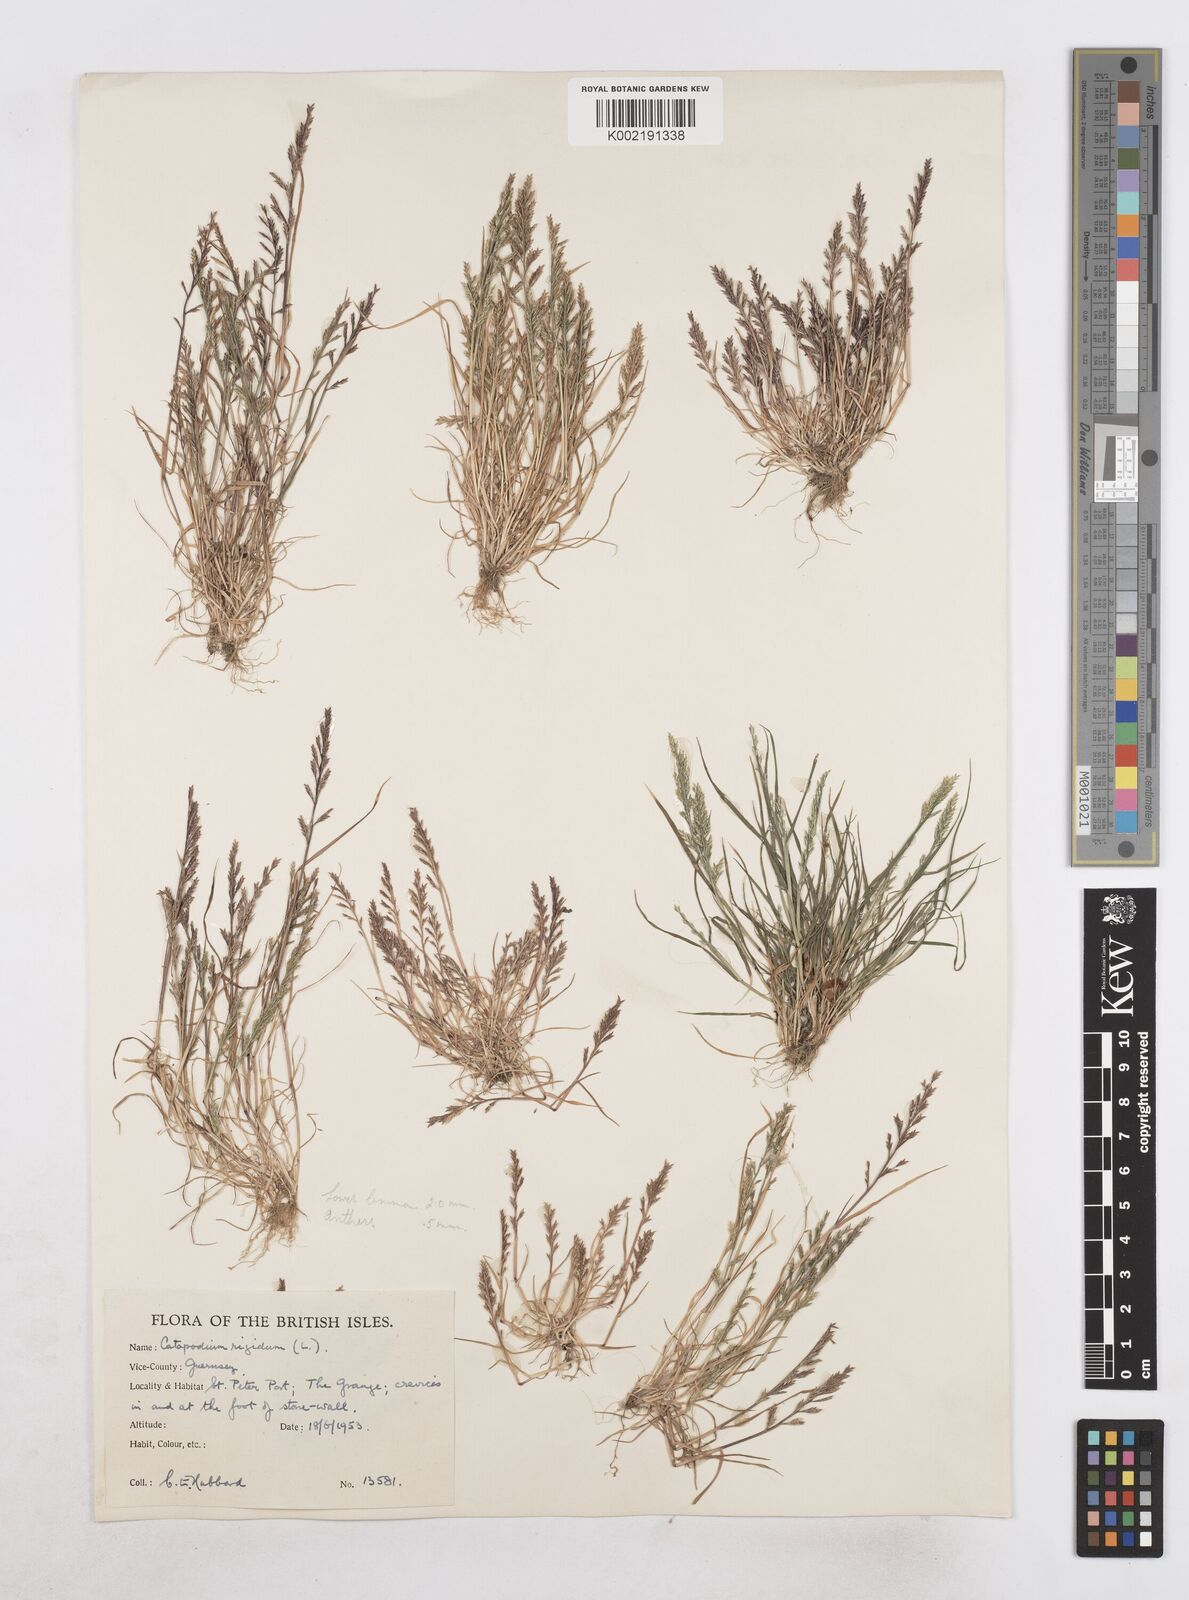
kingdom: Plantae
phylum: Tracheophyta
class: Liliopsida
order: Poales
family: Poaceae
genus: Catapodium
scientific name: Catapodium rigidum
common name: Fern-grass
